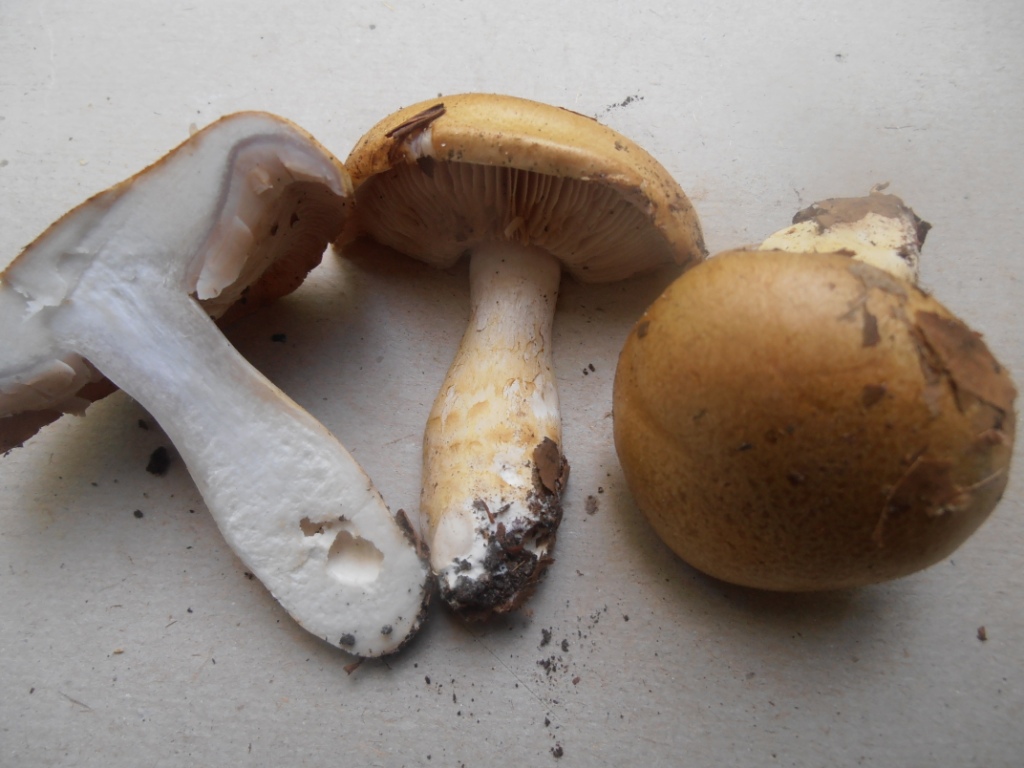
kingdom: Fungi
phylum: Basidiomycota
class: Agaricomycetes
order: Agaricales
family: Cortinariaceae
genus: Phlegmacium
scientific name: Phlegmacium cliduchus
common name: majs-slørhat
